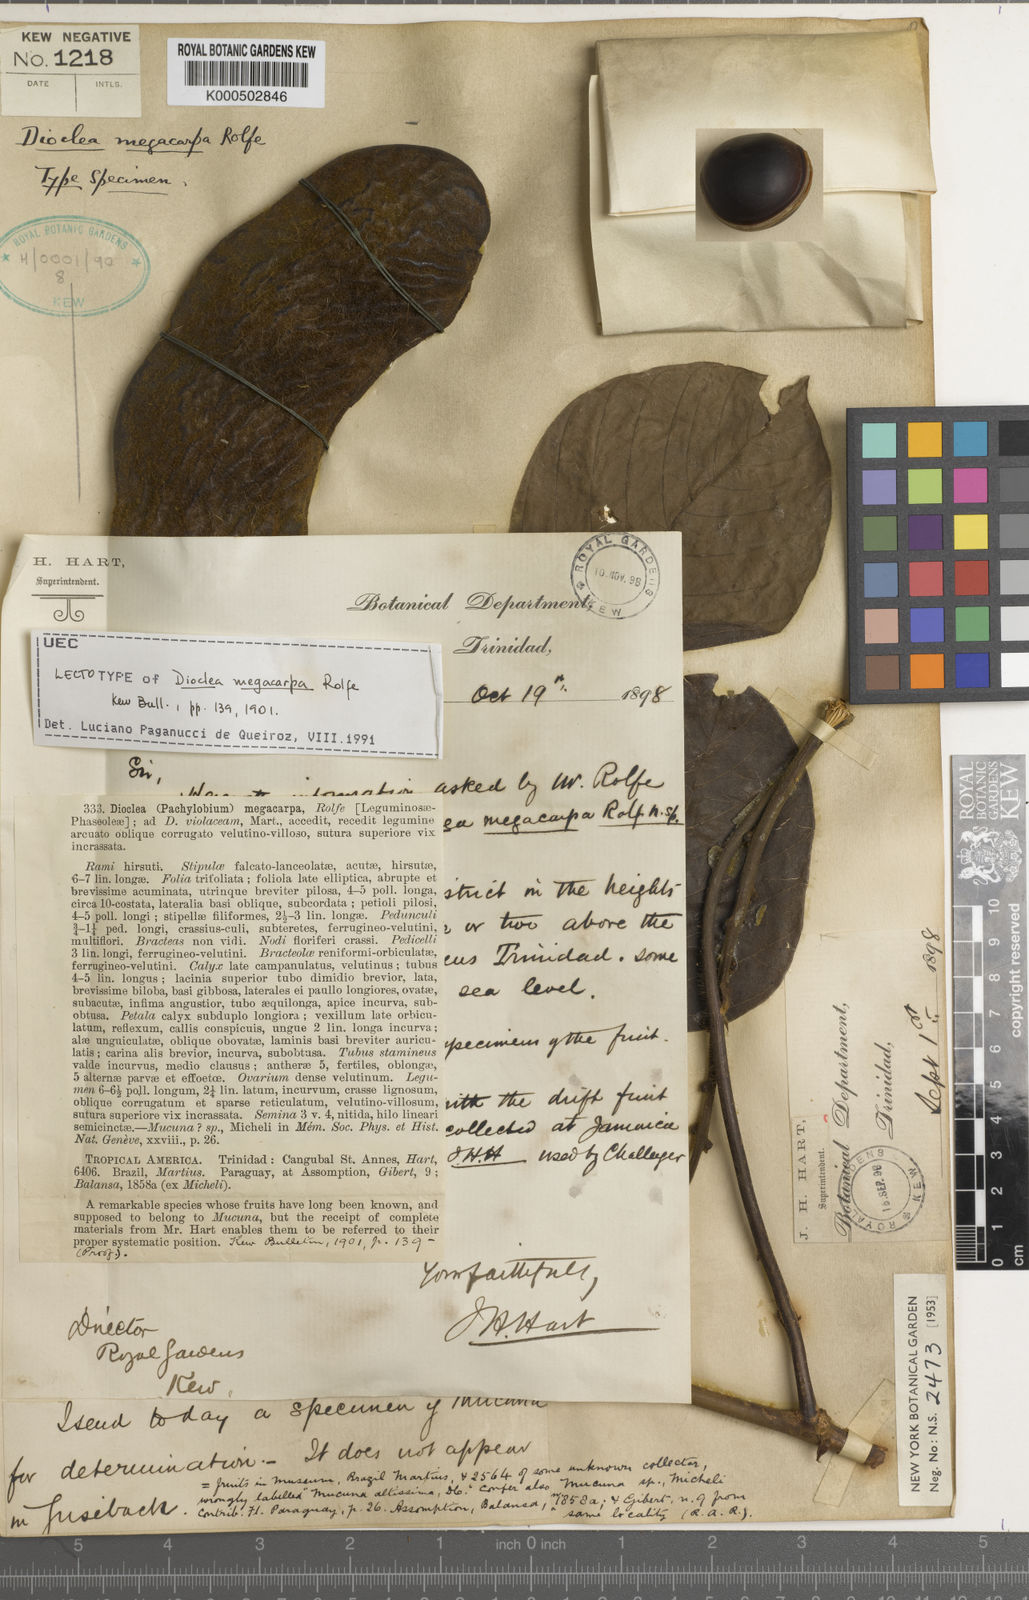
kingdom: Plantae
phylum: Tracheophyta
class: Magnoliopsida
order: Fabales
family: Fabaceae
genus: Macropsychanthus
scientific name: Macropsychanthus megacarpus
